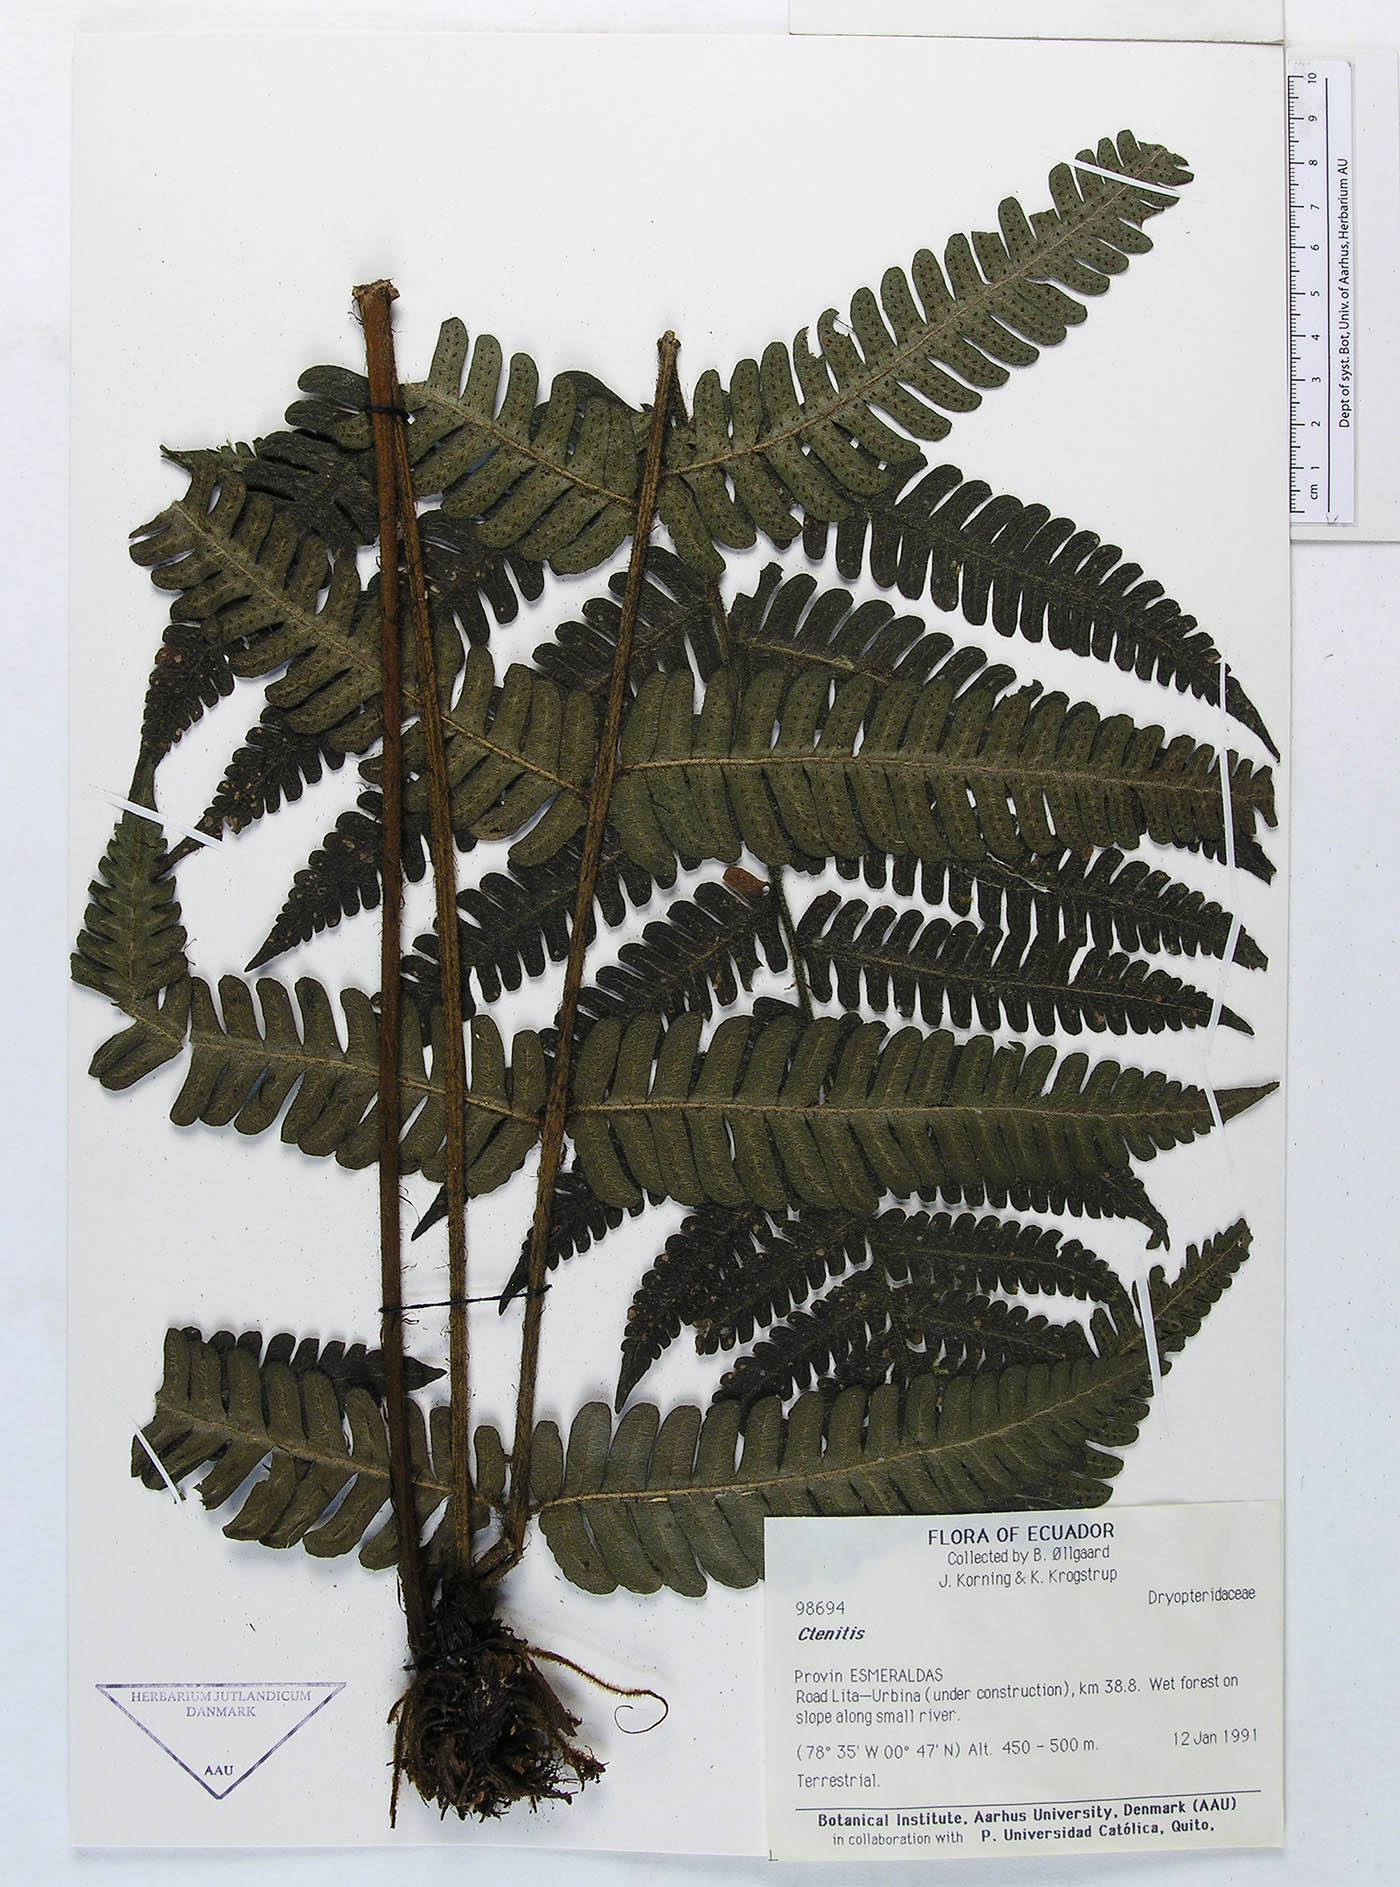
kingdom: Plantae
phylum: Tracheophyta
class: Polypodiopsida
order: Polypodiales
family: Dryopteridaceae
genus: Megalastrum
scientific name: Megalastrum hirsutosetosum
